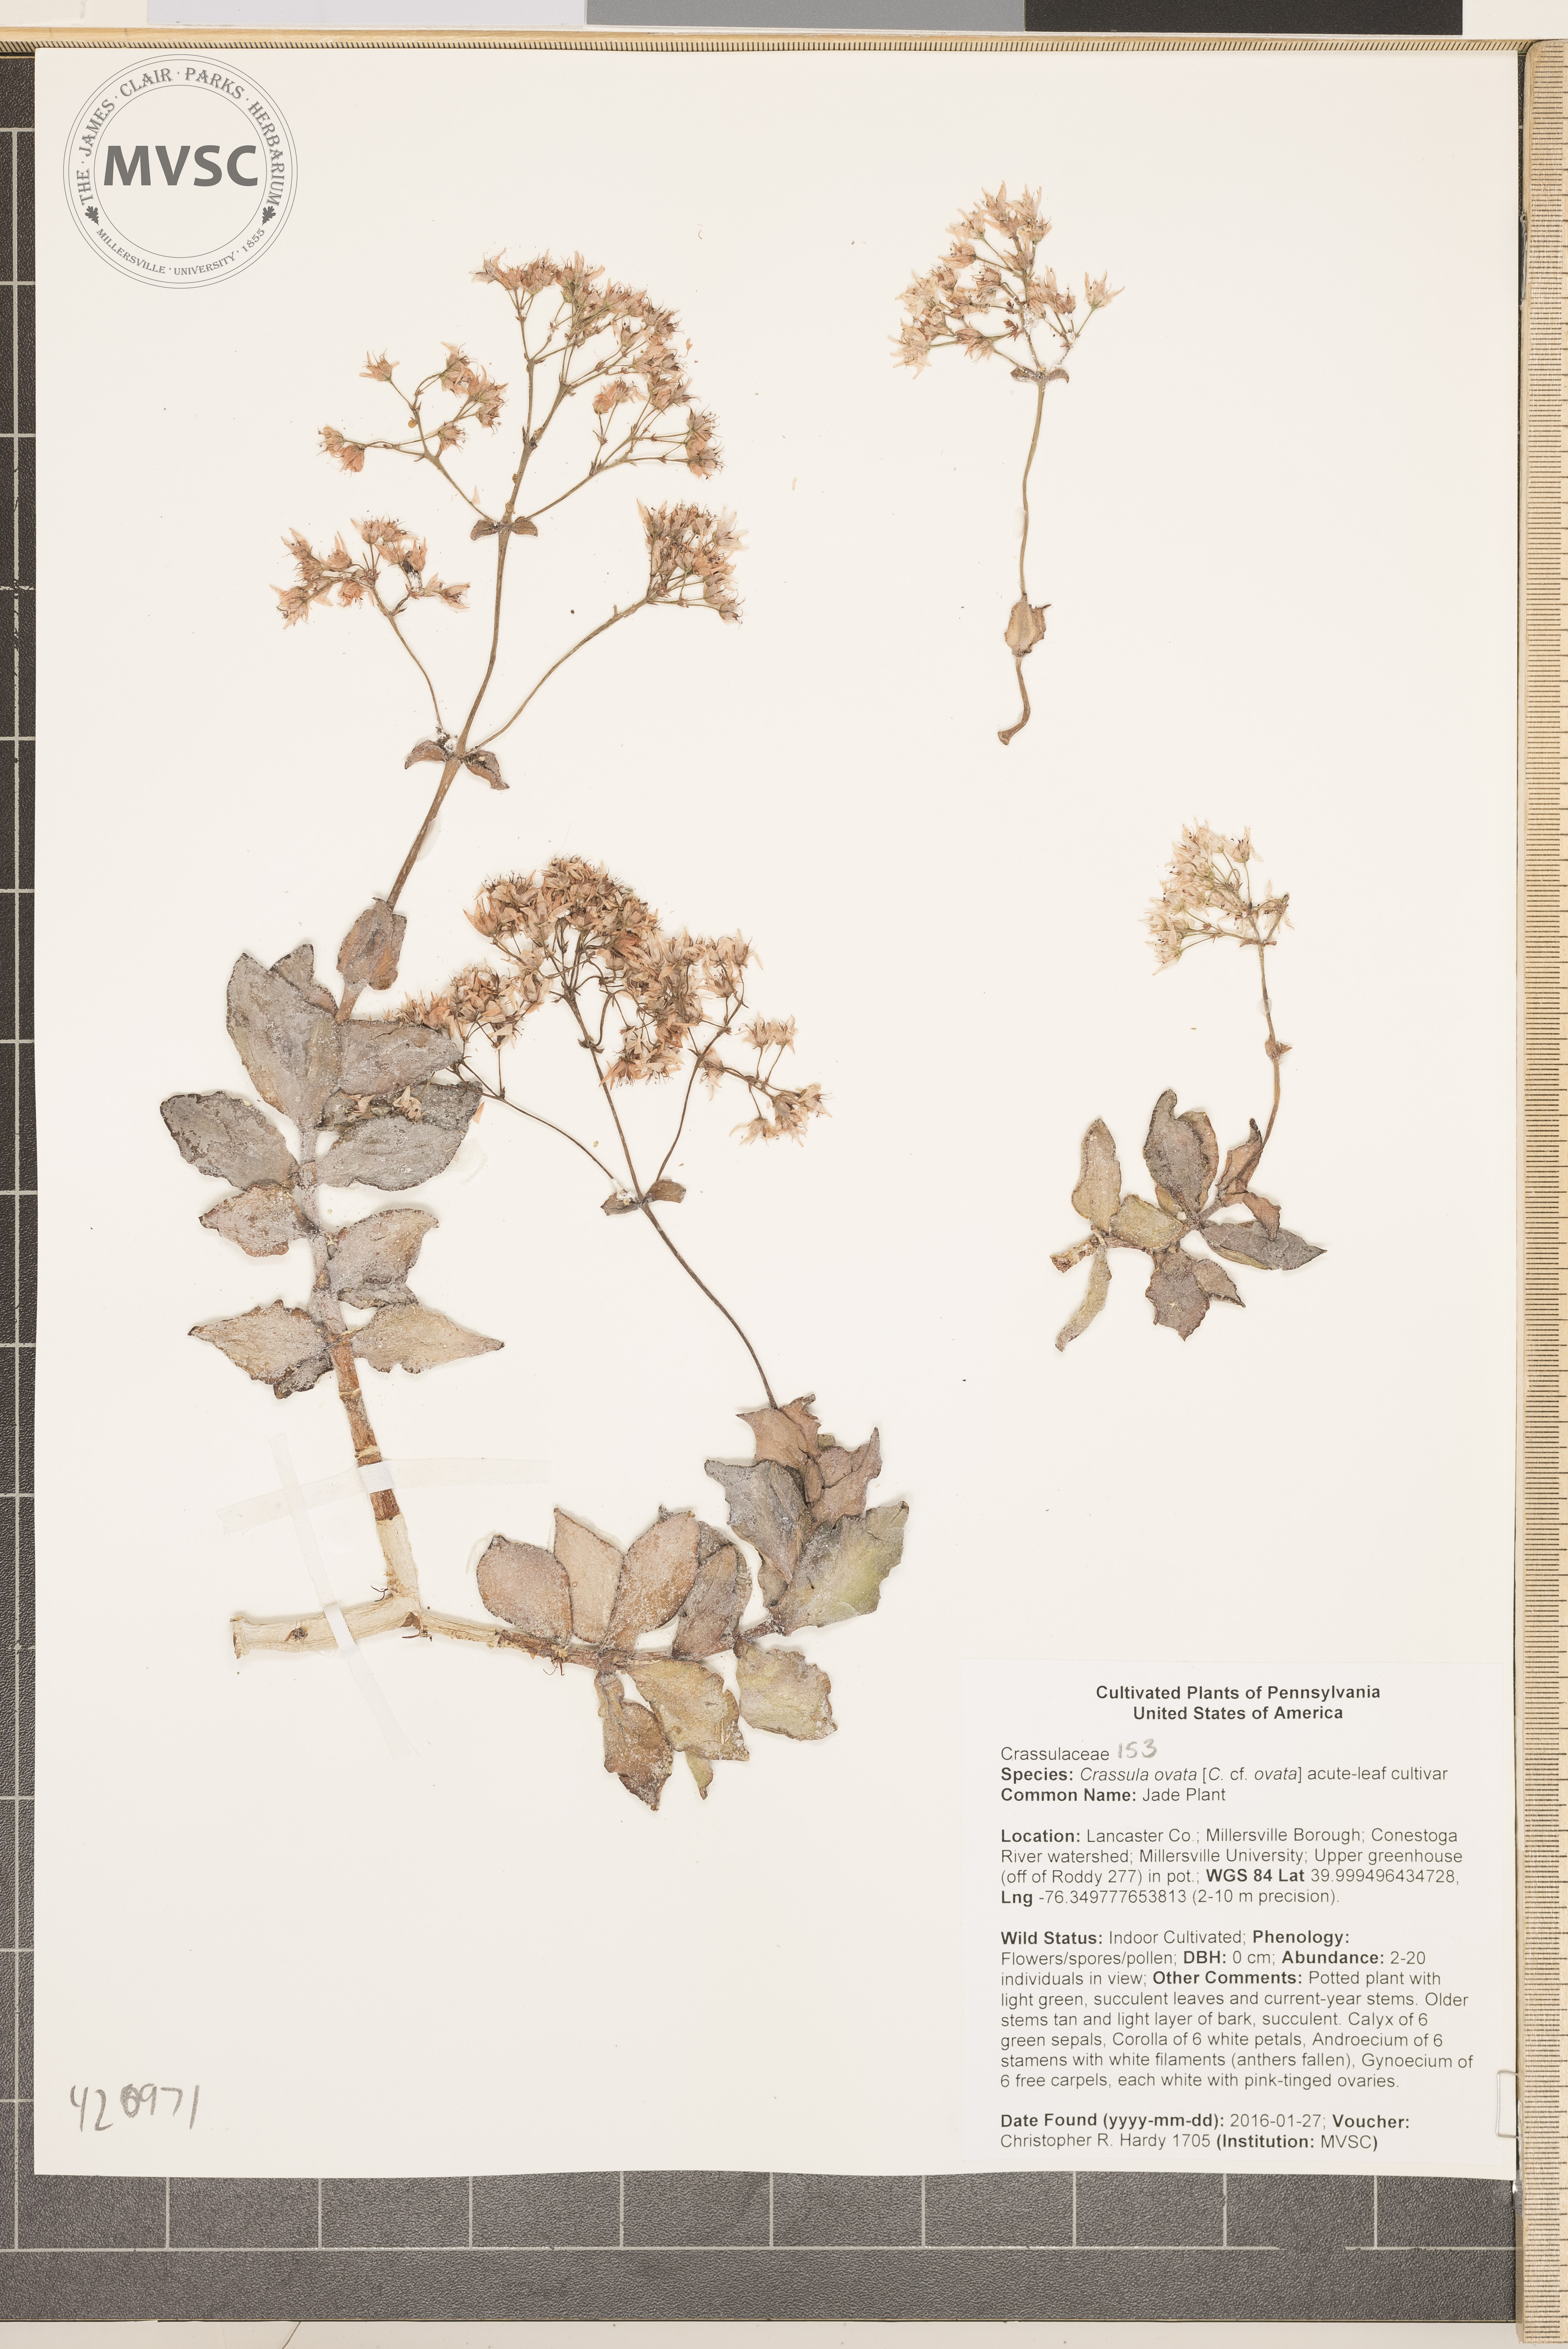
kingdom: Plantae
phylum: Tracheophyta
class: Magnoliopsida
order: Saxifragales
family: Crassulaceae
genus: Crassula
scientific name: Crassula ovata
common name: Jade Plant
